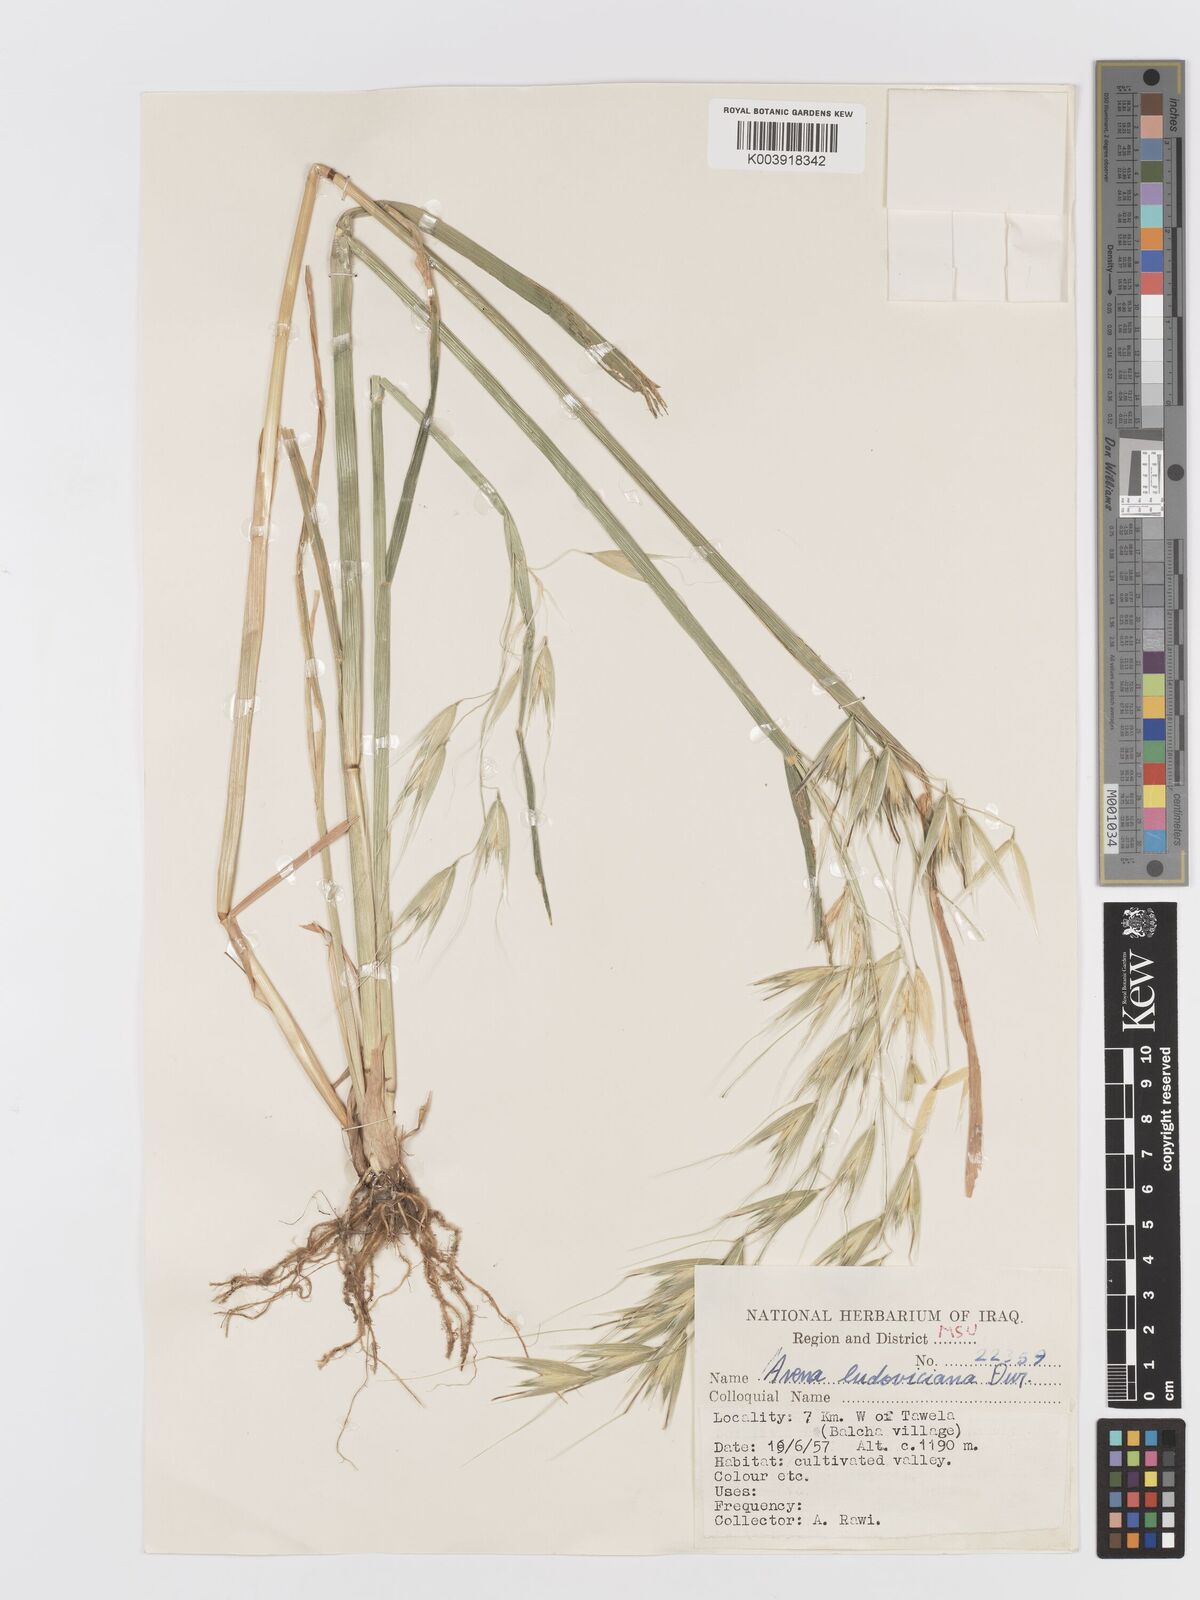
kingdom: Plantae
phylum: Tracheophyta
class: Liliopsida
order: Poales
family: Poaceae
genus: Avena
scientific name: Avena sterilis
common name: Animated oat
